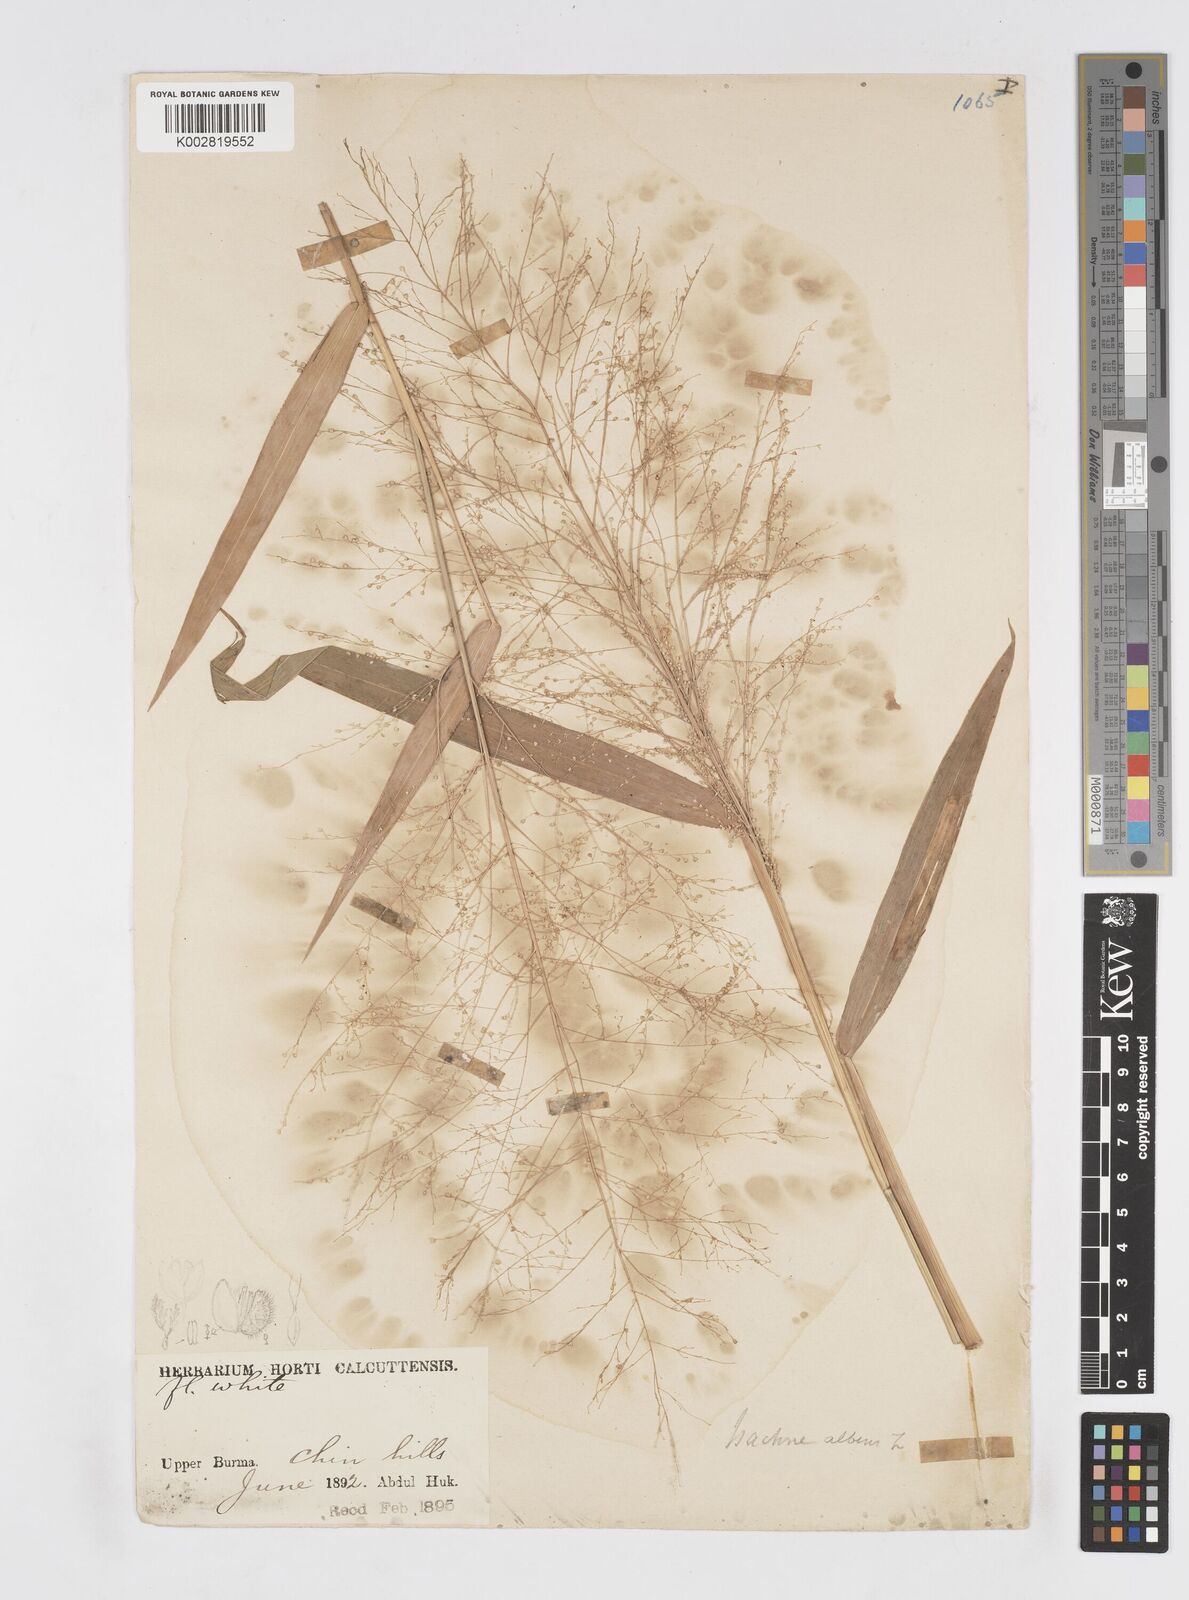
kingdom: Plantae
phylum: Tracheophyta
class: Liliopsida
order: Poales
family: Poaceae
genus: Isachne
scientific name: Isachne albens
